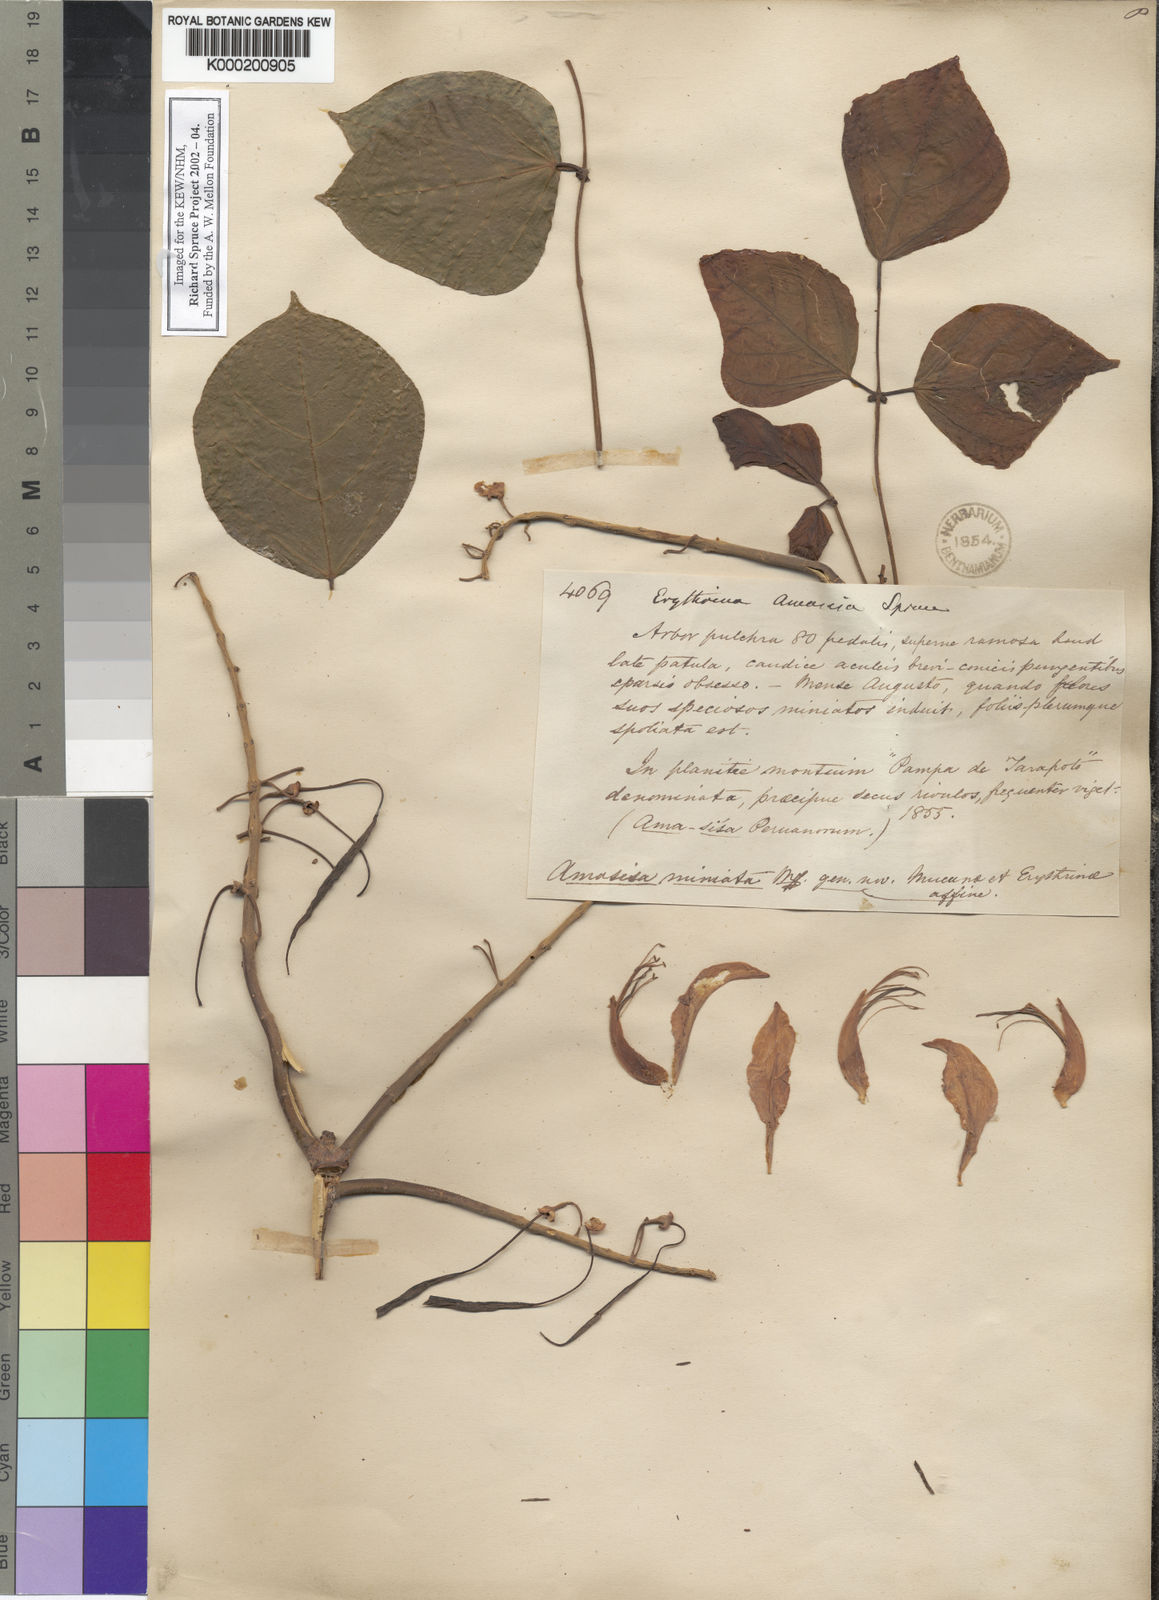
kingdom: Plantae
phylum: Tracheophyta
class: Magnoliopsida
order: Fabales
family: Fabaceae
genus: Erythrina
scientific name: Erythrina poeppigiana
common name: Coral tree
